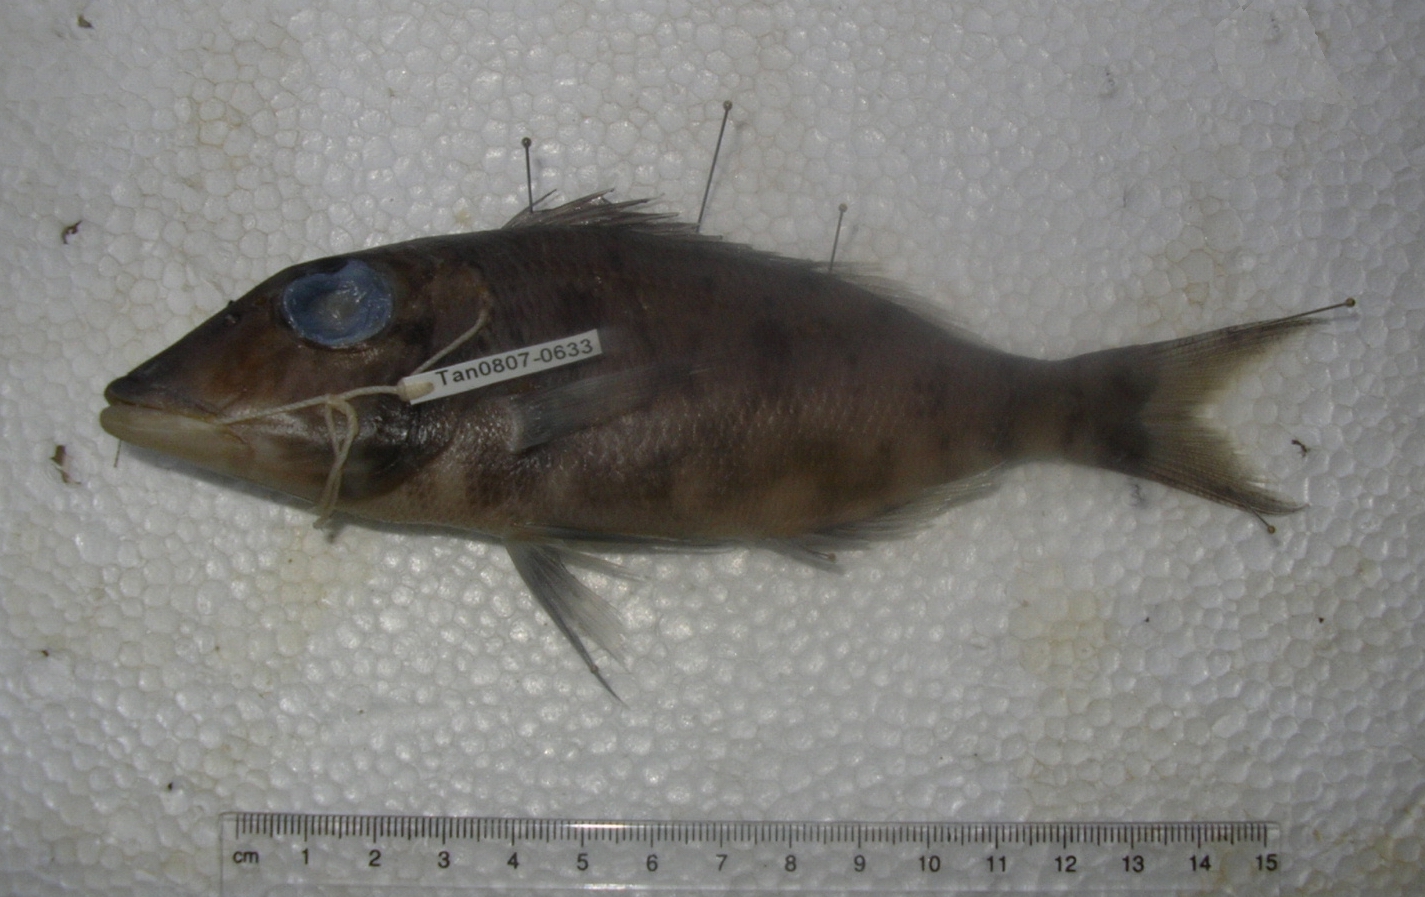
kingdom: Animalia
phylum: Chordata
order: Perciformes
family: Lethrinidae
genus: Lethrinus
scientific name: Lethrinus rubrioperculatus
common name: Spotcheek emperor
